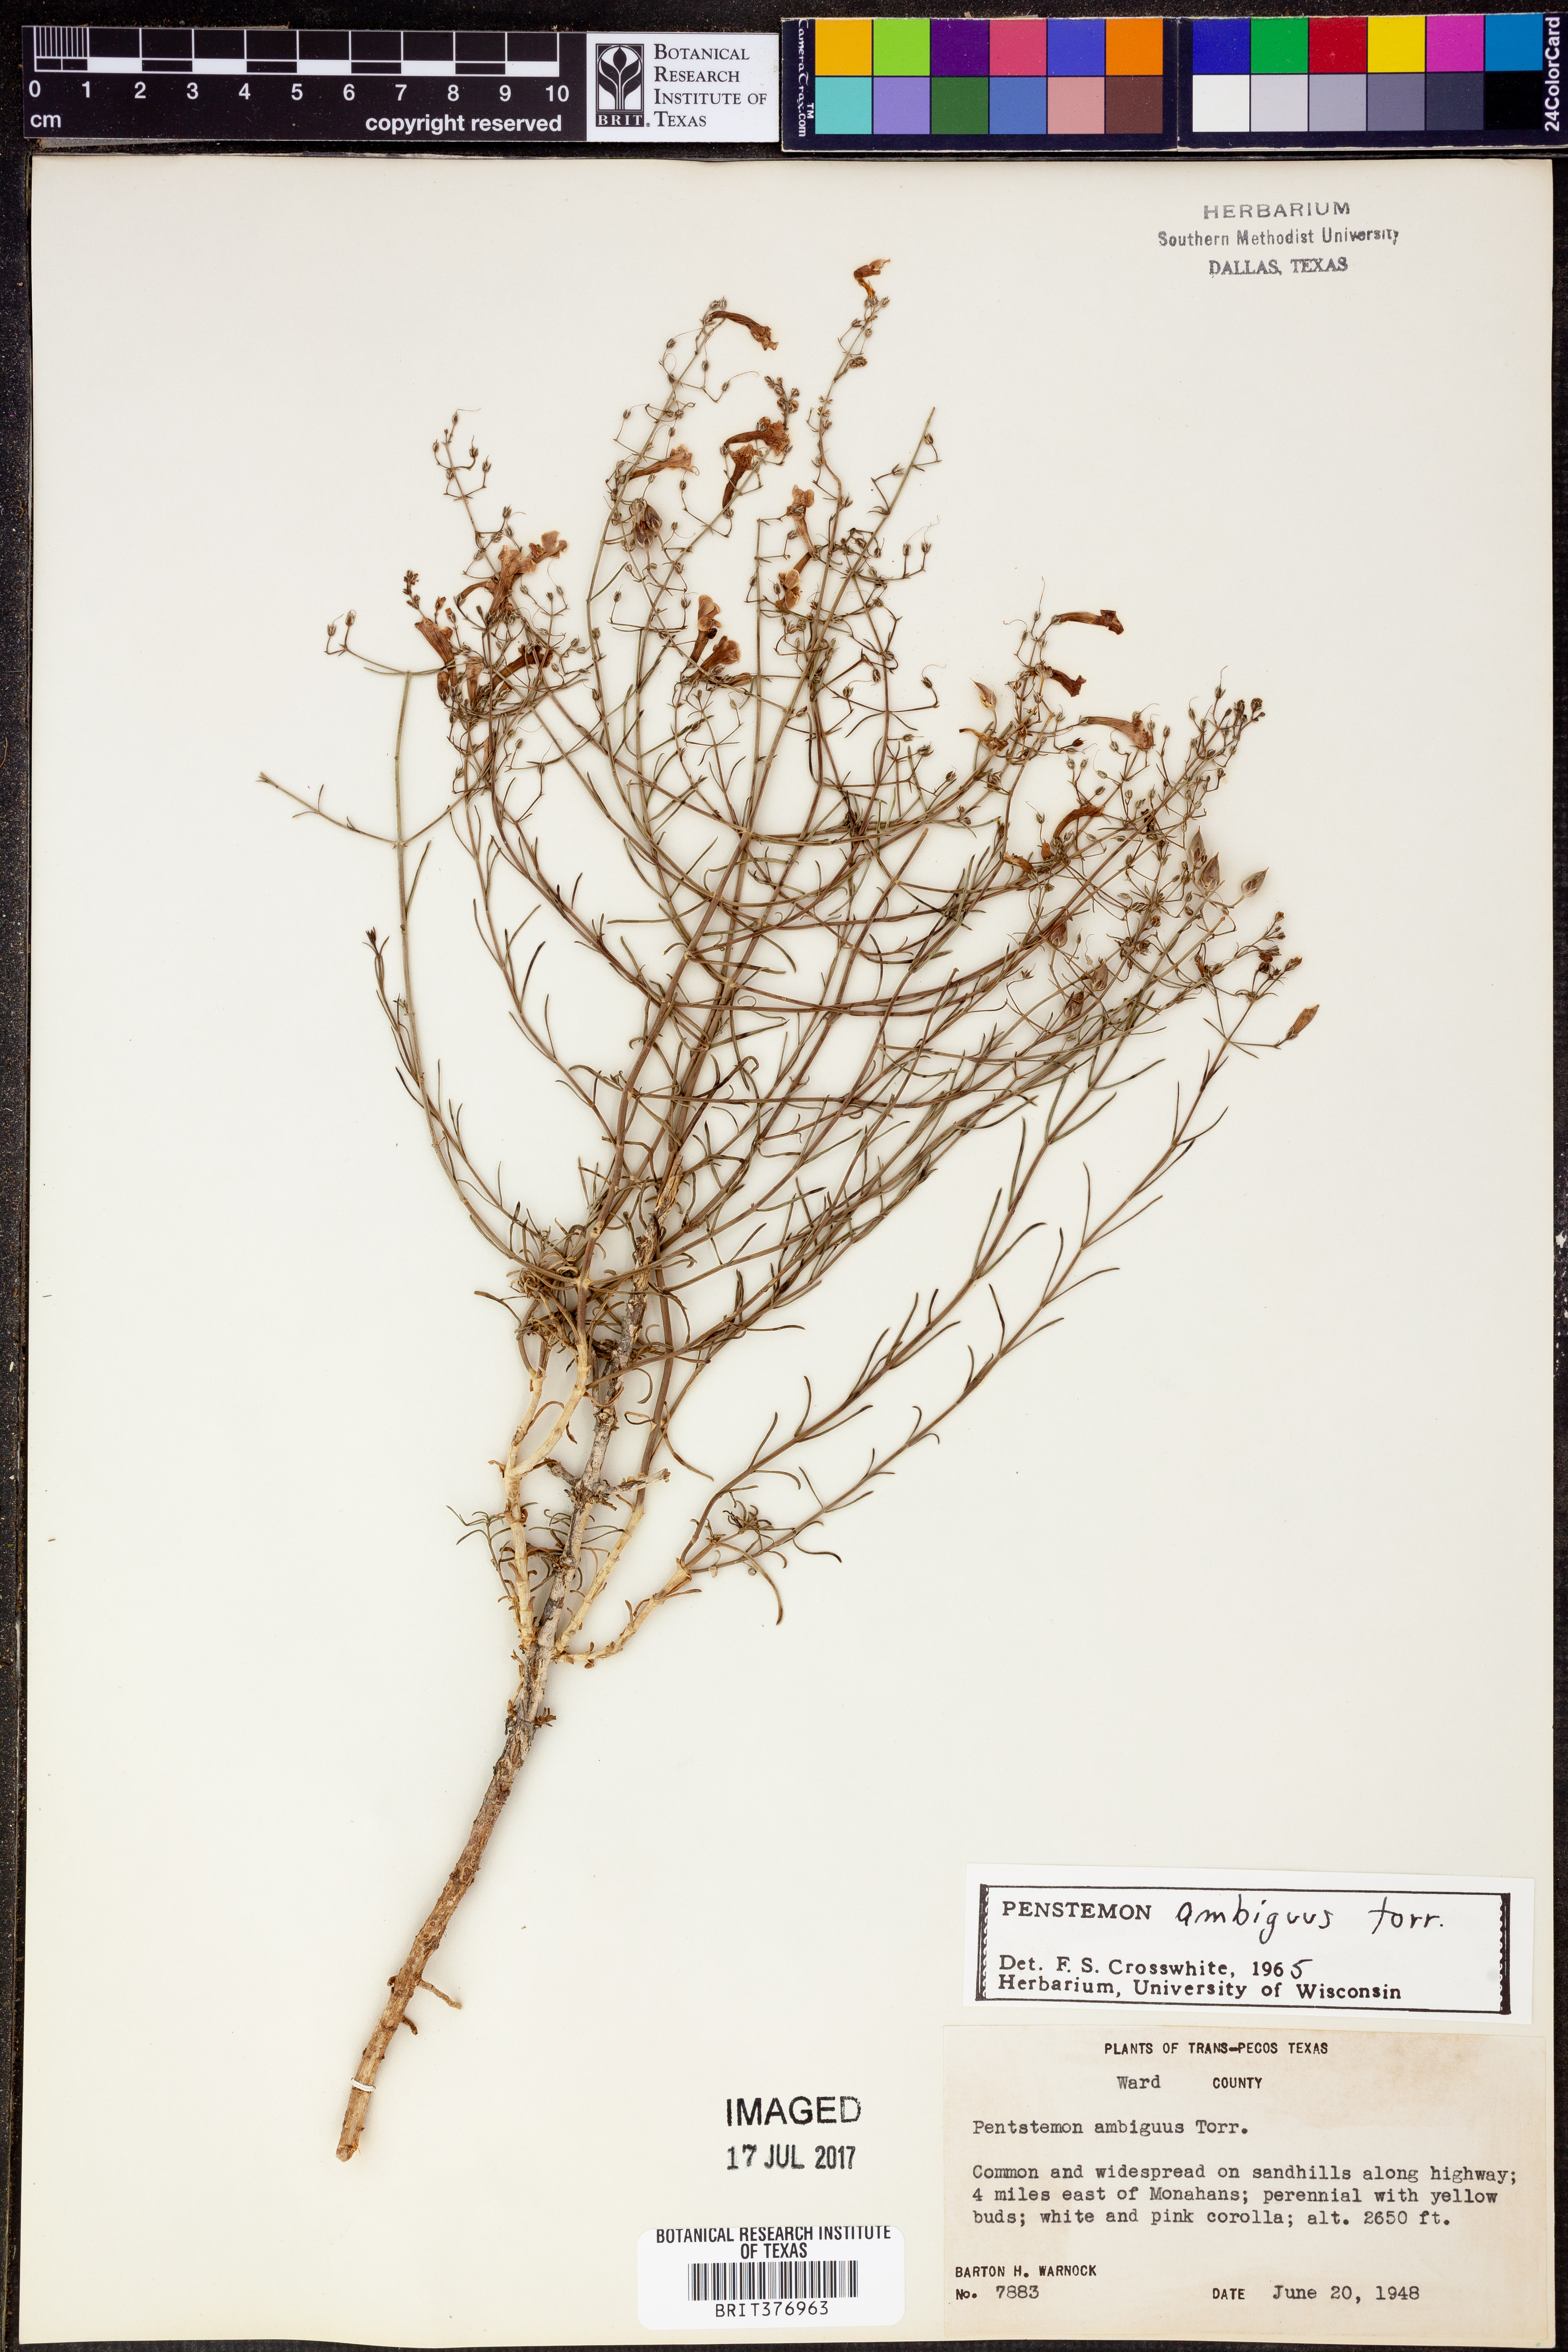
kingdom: Plantae
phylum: Tracheophyta
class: Magnoliopsida
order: Lamiales
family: Plantaginaceae
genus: Penstemon
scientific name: Penstemon ambiguus
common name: Bush penstemon
